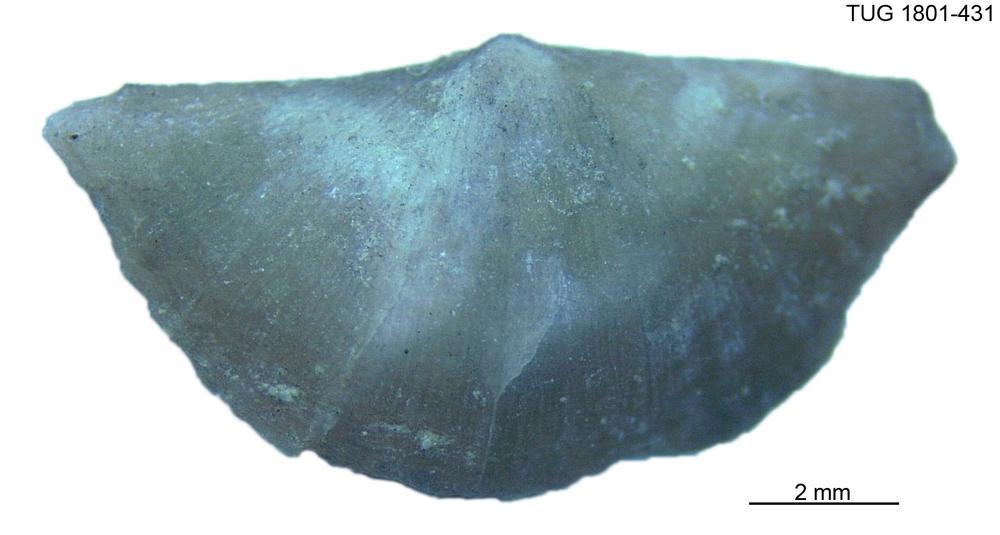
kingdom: Animalia
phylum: Brachiopoda
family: Oldhaminidae
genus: Eoplectodonta
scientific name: Eoplectodonta
